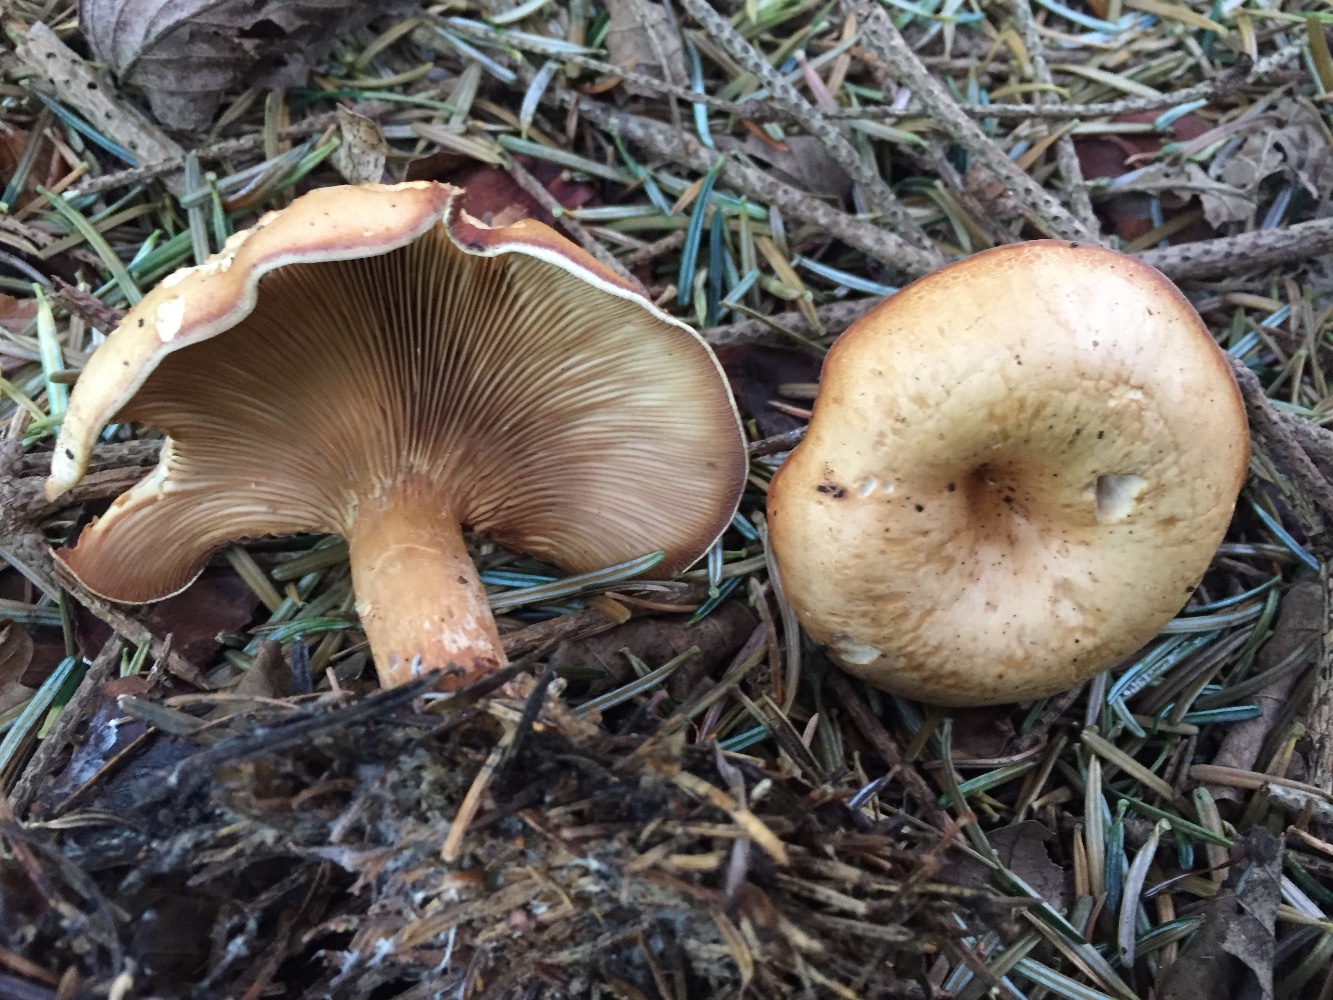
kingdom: Fungi
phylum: Basidiomycota
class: Agaricomycetes
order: Agaricales
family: Tricholomataceae
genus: Paralepista
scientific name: Paralepista flaccida
